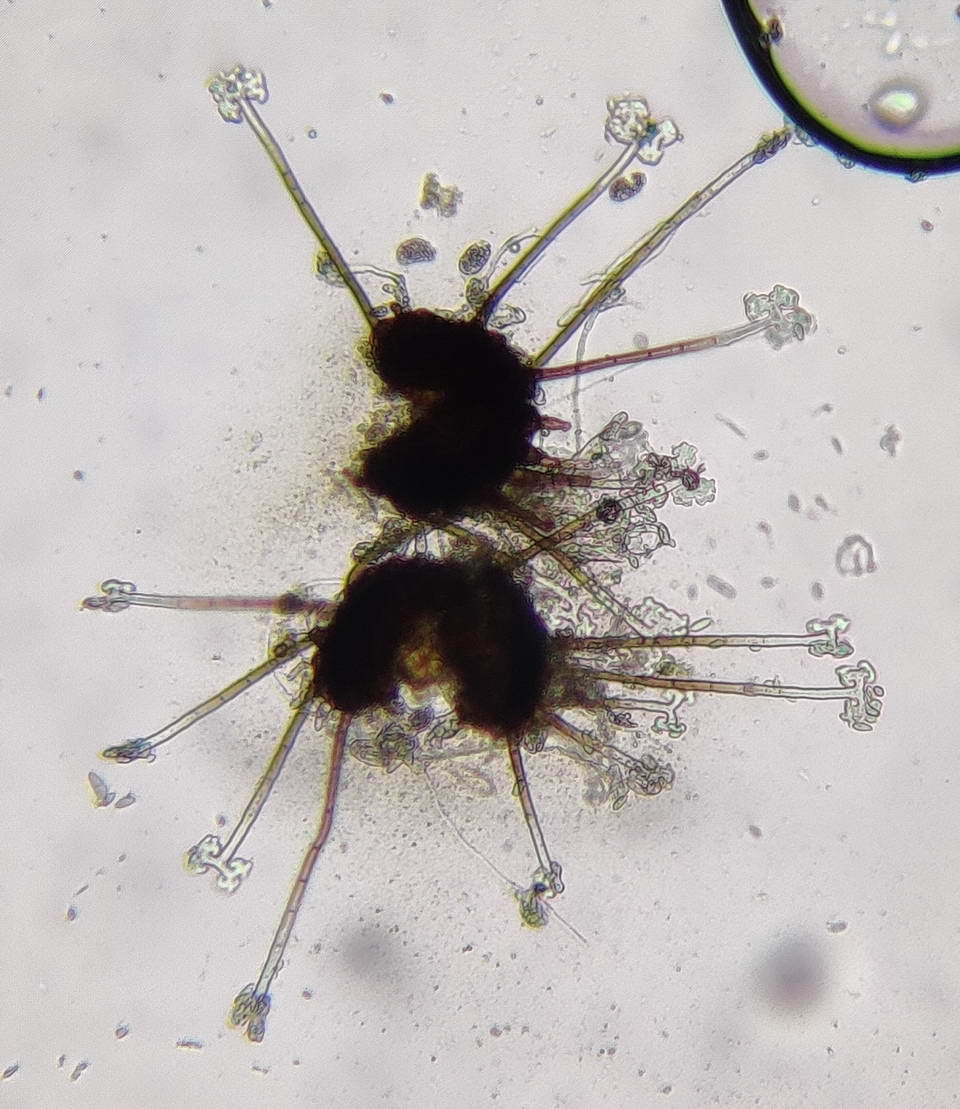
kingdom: Fungi
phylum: Ascomycota
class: Leotiomycetes
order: Helotiales
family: Erysiphaceae
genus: Podosphaera
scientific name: Podosphaera clandestina
